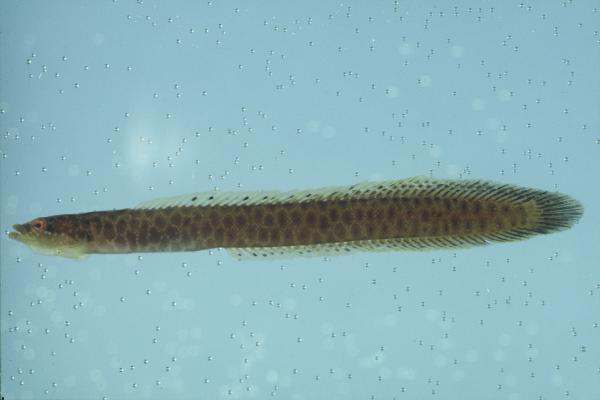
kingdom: Animalia
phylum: Chordata
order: Perciformes
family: Pseudochromidae
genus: Halimuraena
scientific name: Halimuraena shakai
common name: Zulu snakelet
